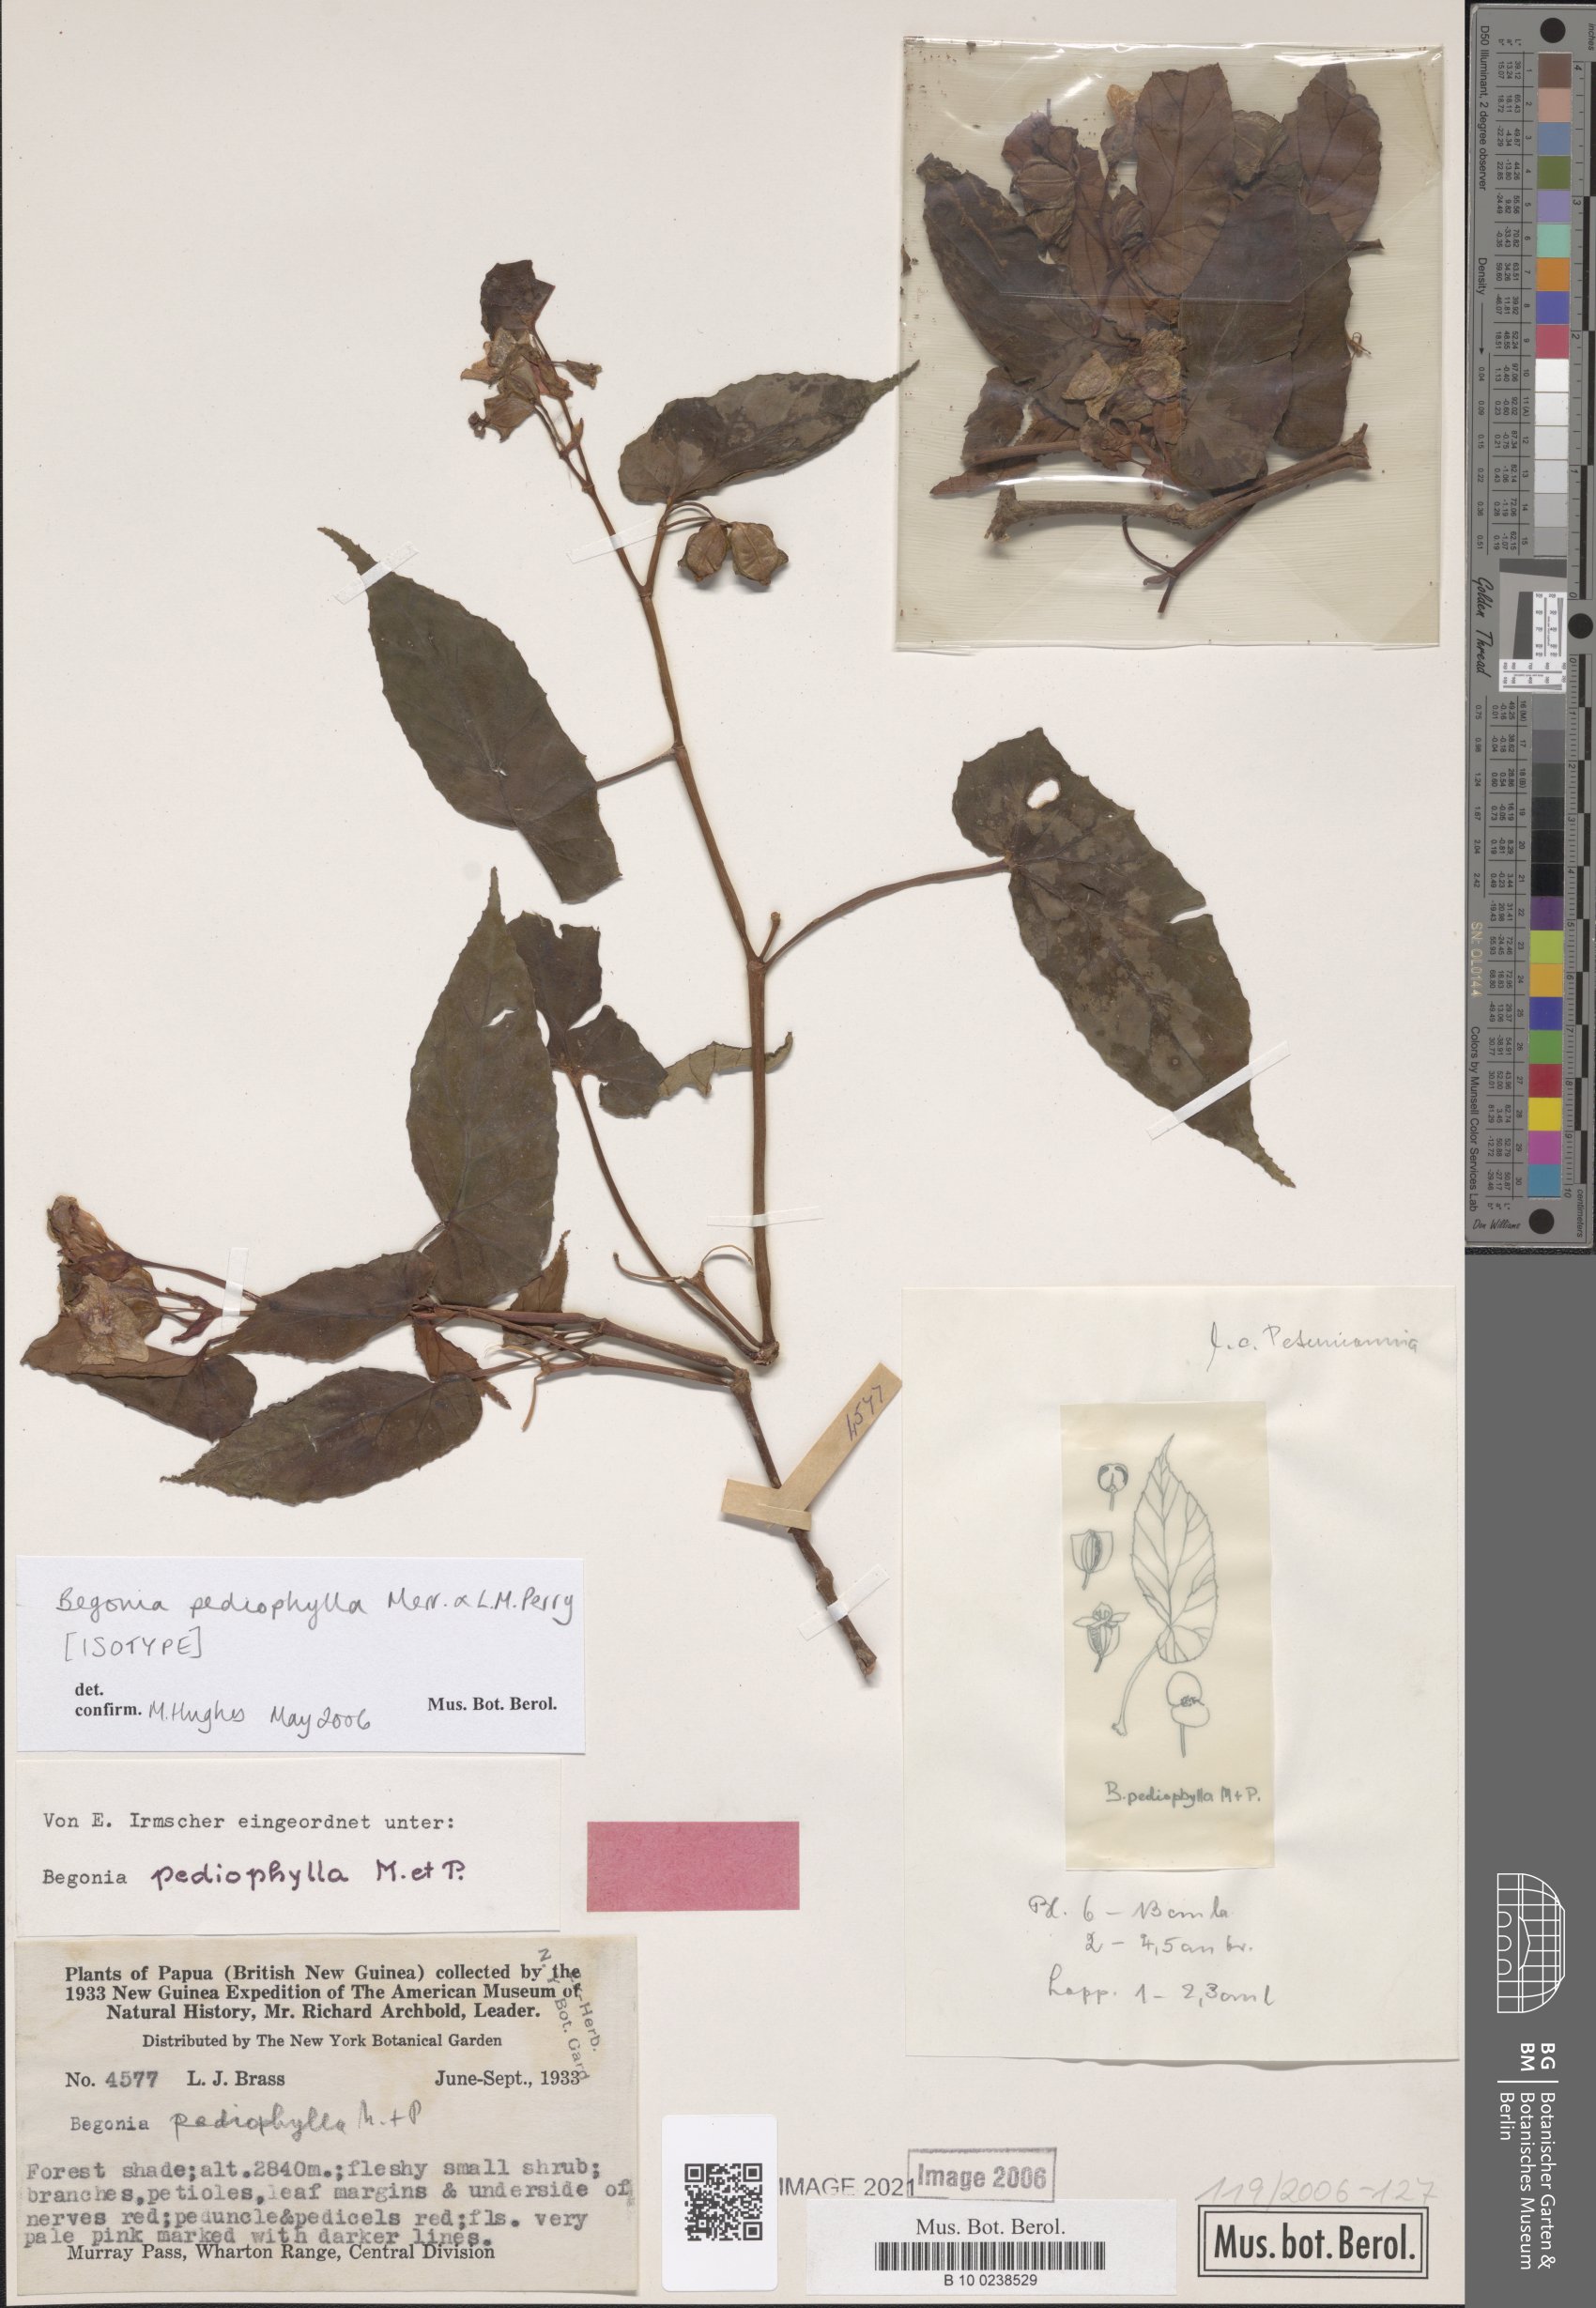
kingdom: Plantae
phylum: Tracheophyta
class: Magnoliopsida
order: Cucurbitales
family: Begoniaceae
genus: Begonia
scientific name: Begonia pediophylla
